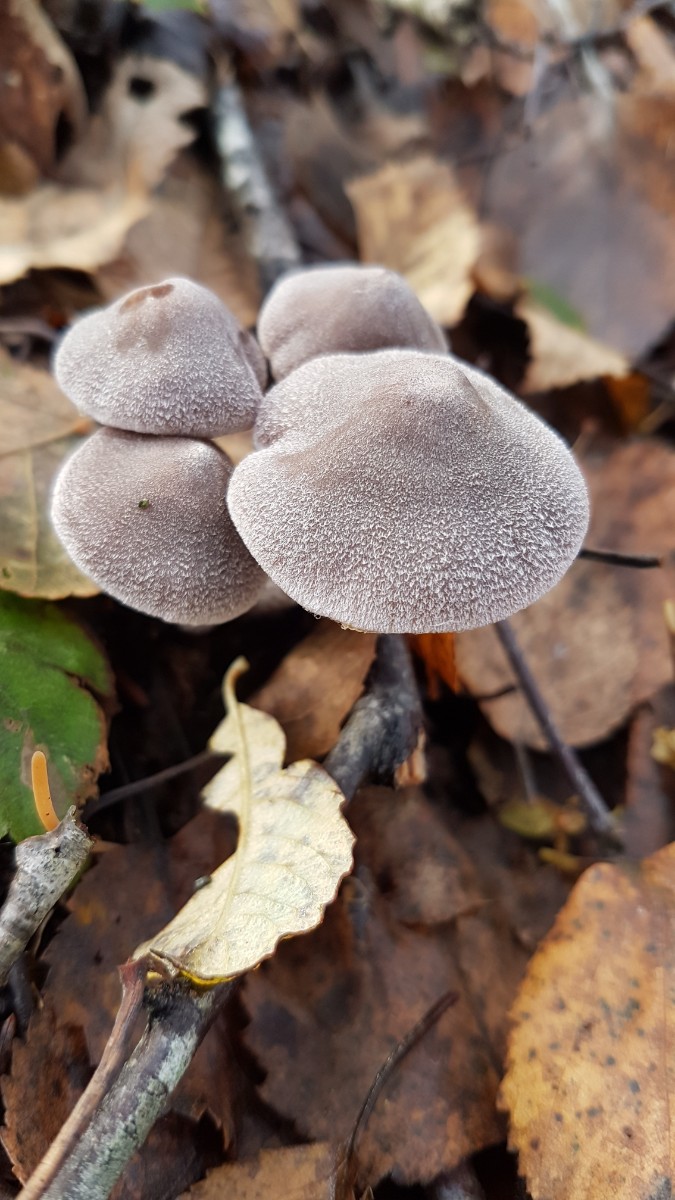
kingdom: Fungi
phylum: Basidiomycota
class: Agaricomycetes
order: Agaricales
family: Cortinariaceae
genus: Cortinarius
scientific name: Cortinarius hemitrichus
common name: hvidfnugget slørhat
